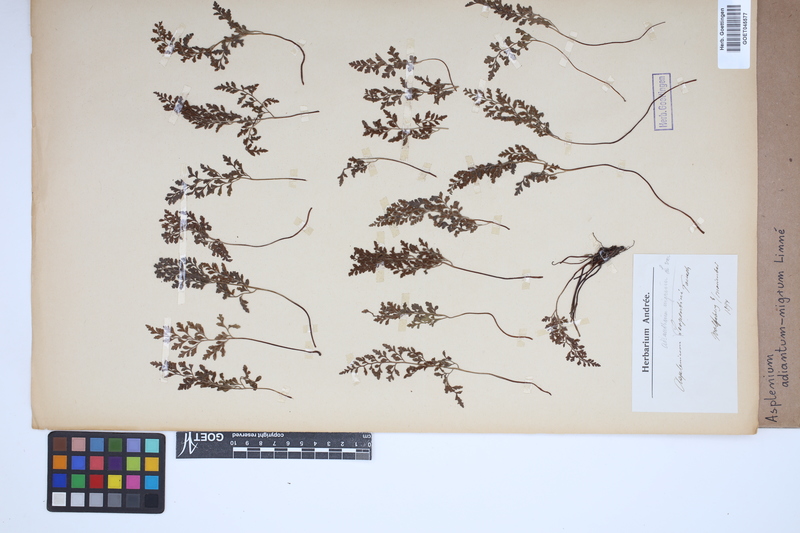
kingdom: Plantae
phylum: Tracheophyta
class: Polypodiopsida
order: Polypodiales
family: Aspleniaceae
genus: Asplenium
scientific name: Asplenium adiantum-nigrum
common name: Black spleenwort
